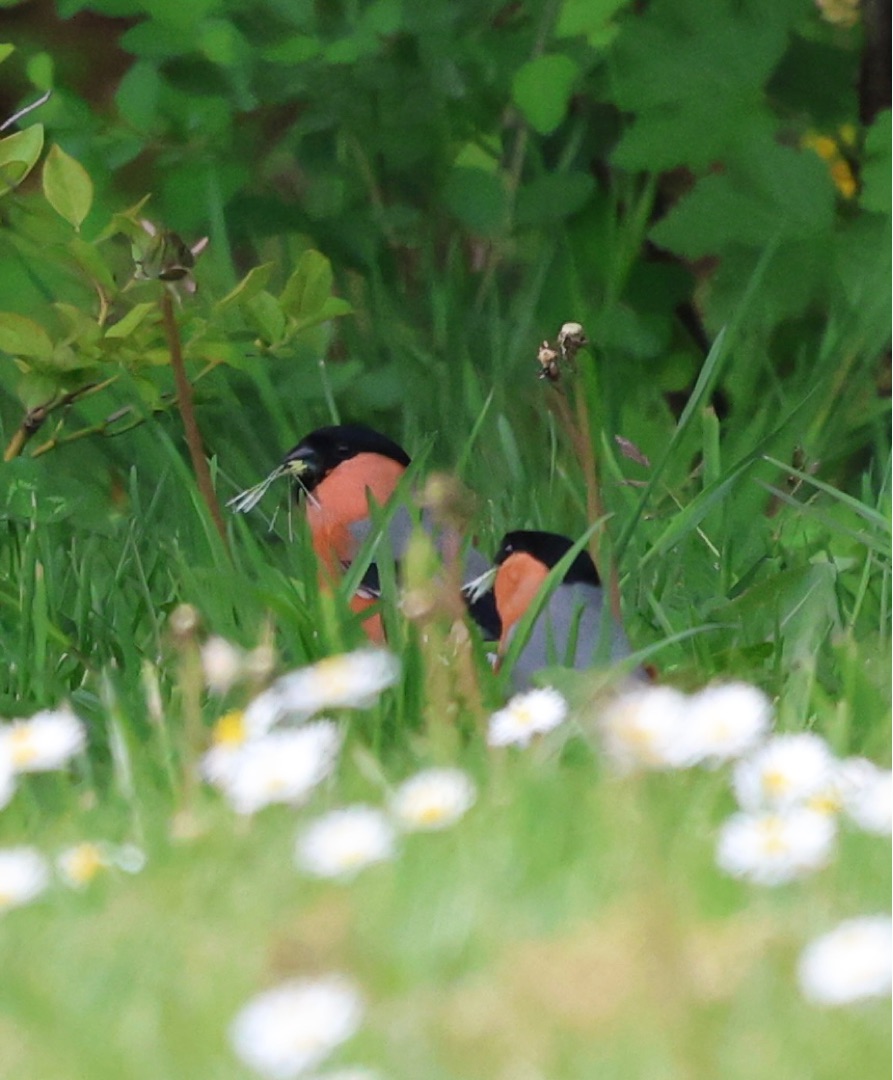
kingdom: Animalia
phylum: Chordata
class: Aves
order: Passeriformes
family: Fringillidae
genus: Pyrrhula
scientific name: Pyrrhula pyrrhula
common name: Dompap
